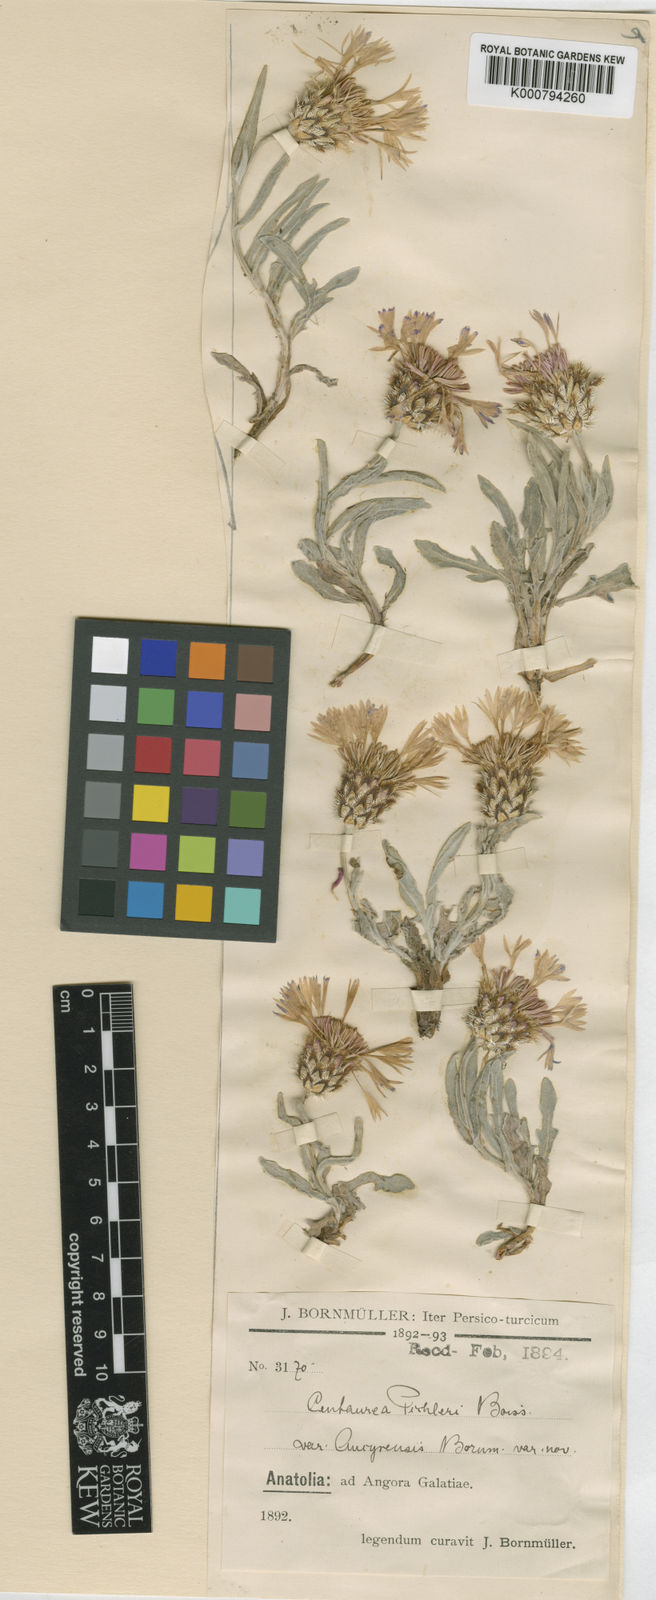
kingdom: Plantae
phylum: Tracheophyta
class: Magnoliopsida
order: Asterales
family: Asteraceae
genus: Centaurea
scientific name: Centaurea pichleri
